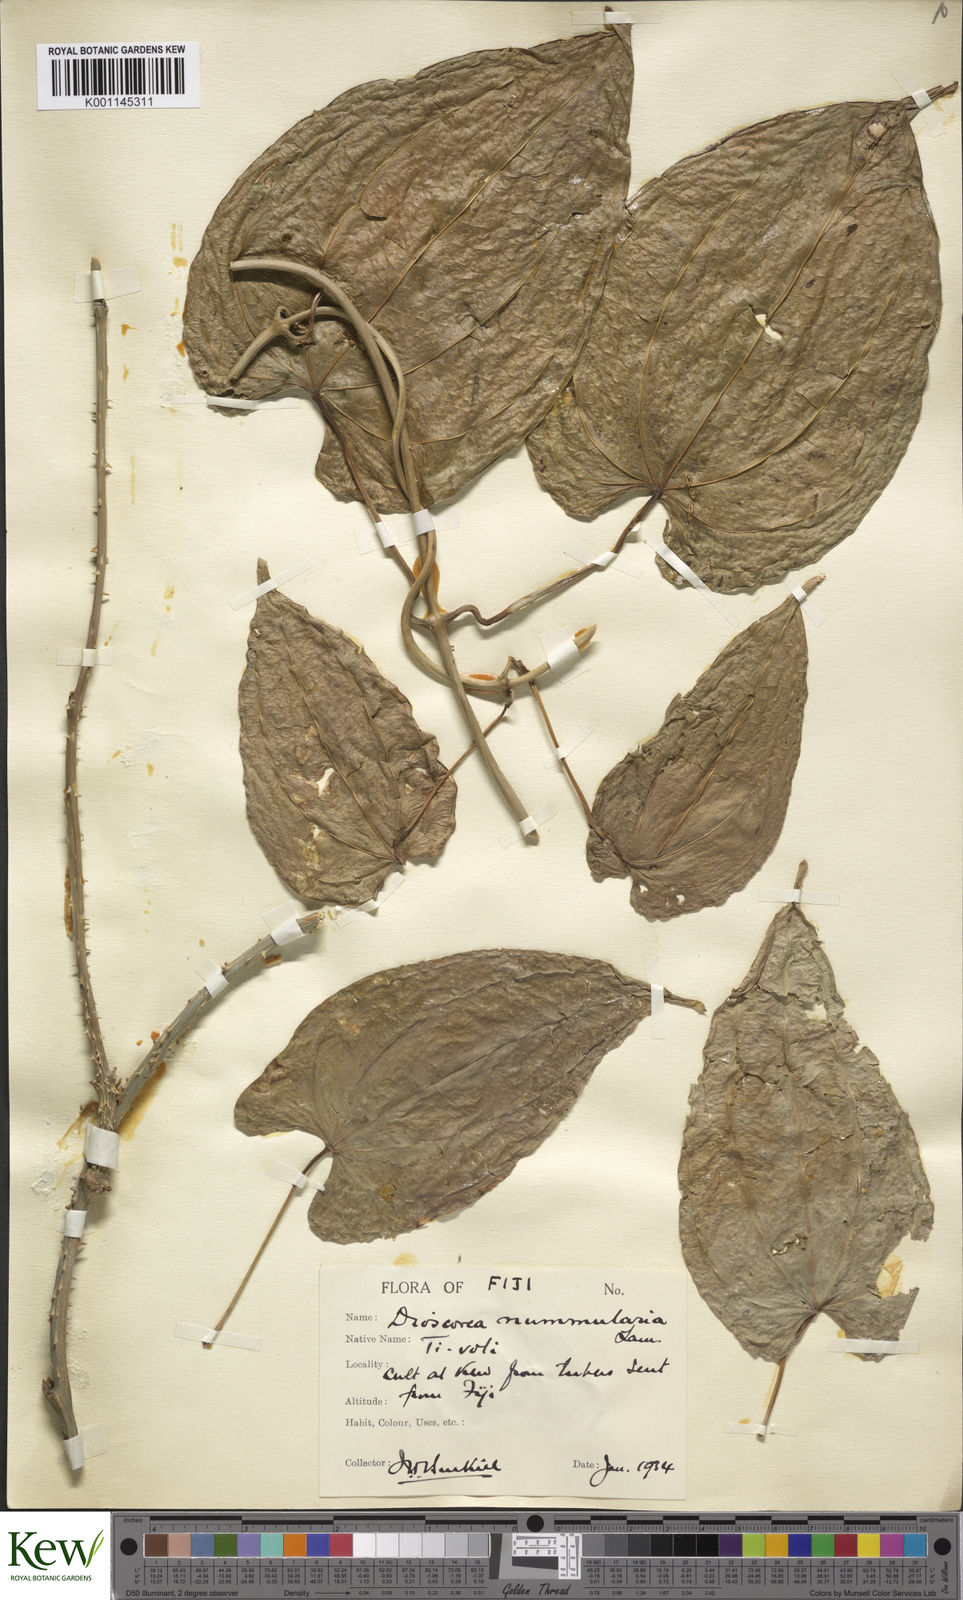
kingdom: Plantae
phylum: Tracheophyta
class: Liliopsida
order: Dioscoreales
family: Dioscoreaceae
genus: Dioscorea
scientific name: Dioscorea nummularia
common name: Pacific yam
